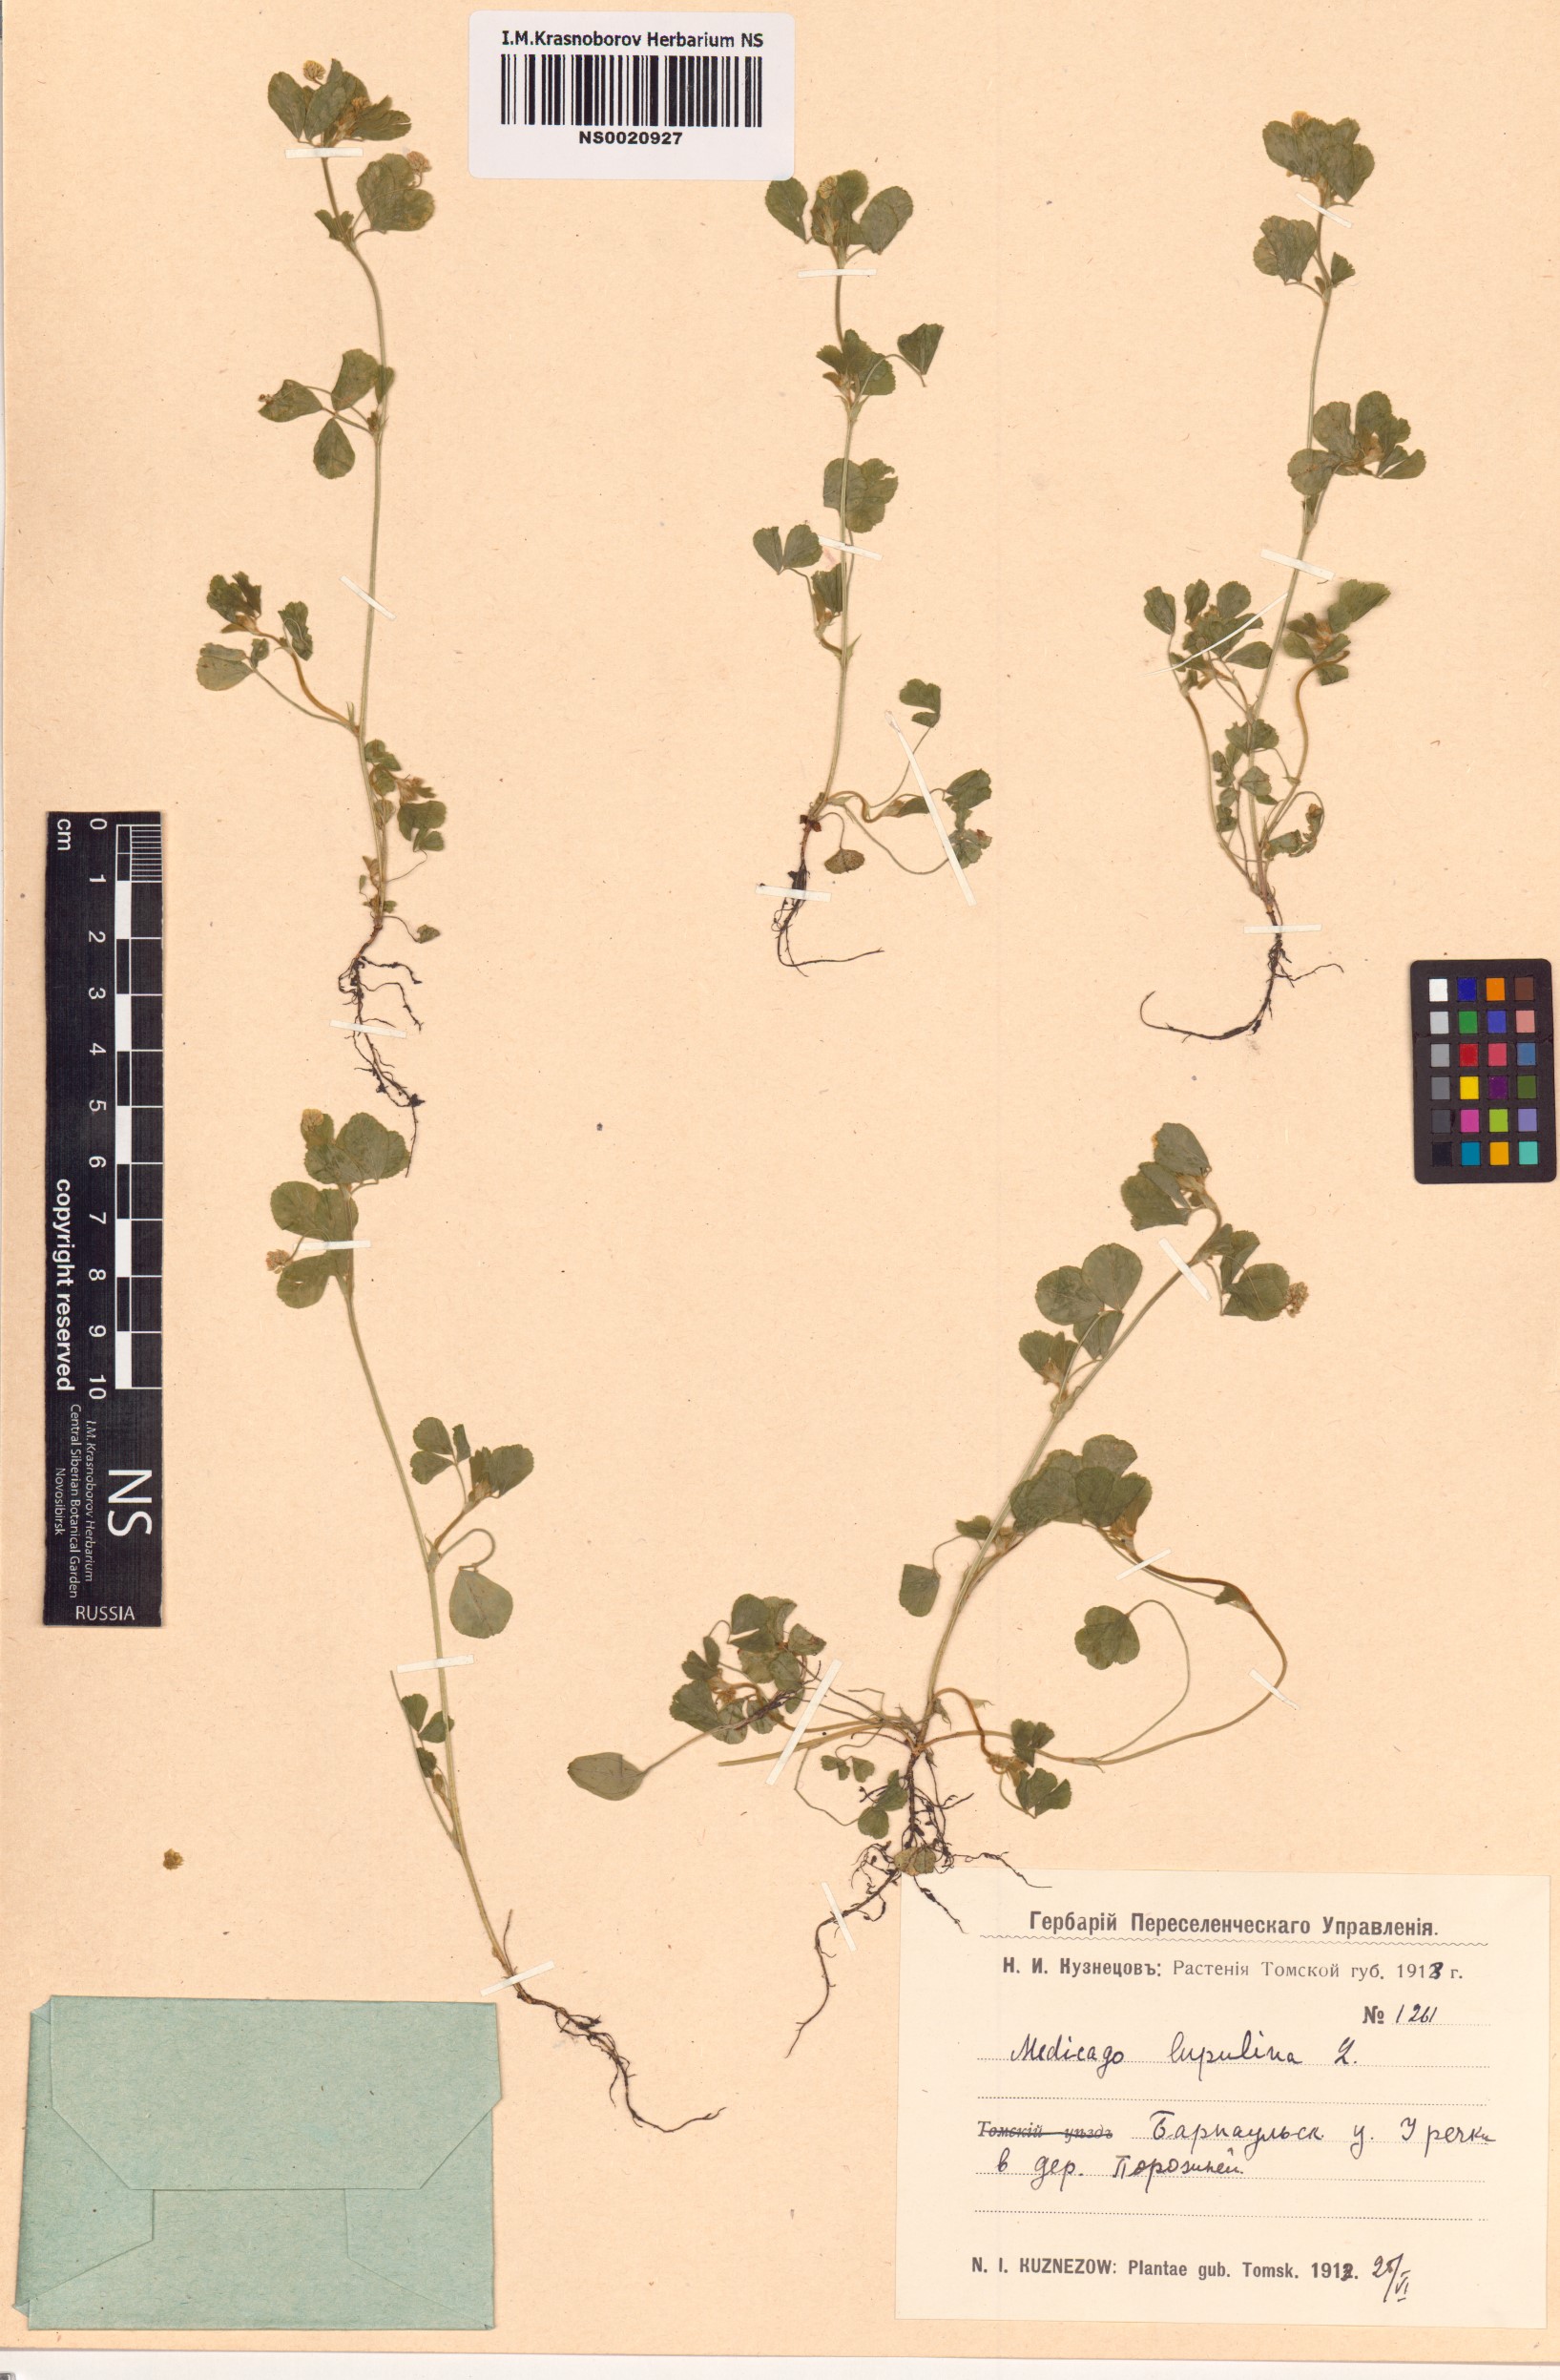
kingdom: Plantae
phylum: Tracheophyta
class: Magnoliopsida
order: Fabales
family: Fabaceae
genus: Medicago
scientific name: Medicago lupulina
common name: Black medick
